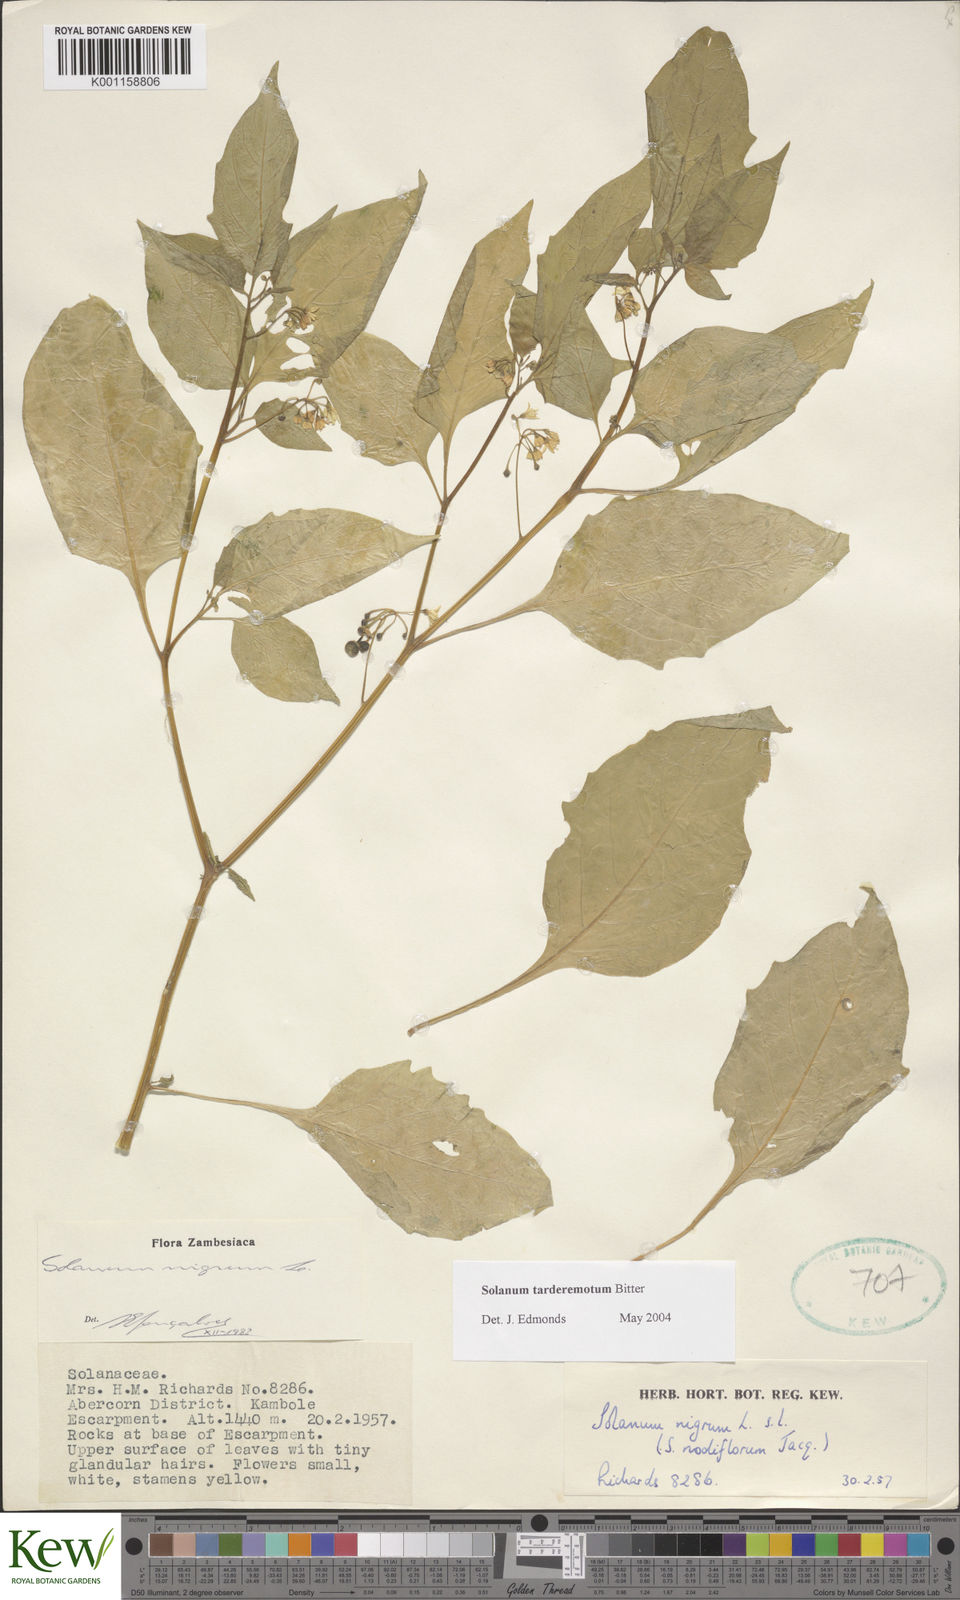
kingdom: Plantae
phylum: Tracheophyta
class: Magnoliopsida
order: Solanales
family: Solanaceae
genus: Solanum
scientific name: Solanum tarderemotum
